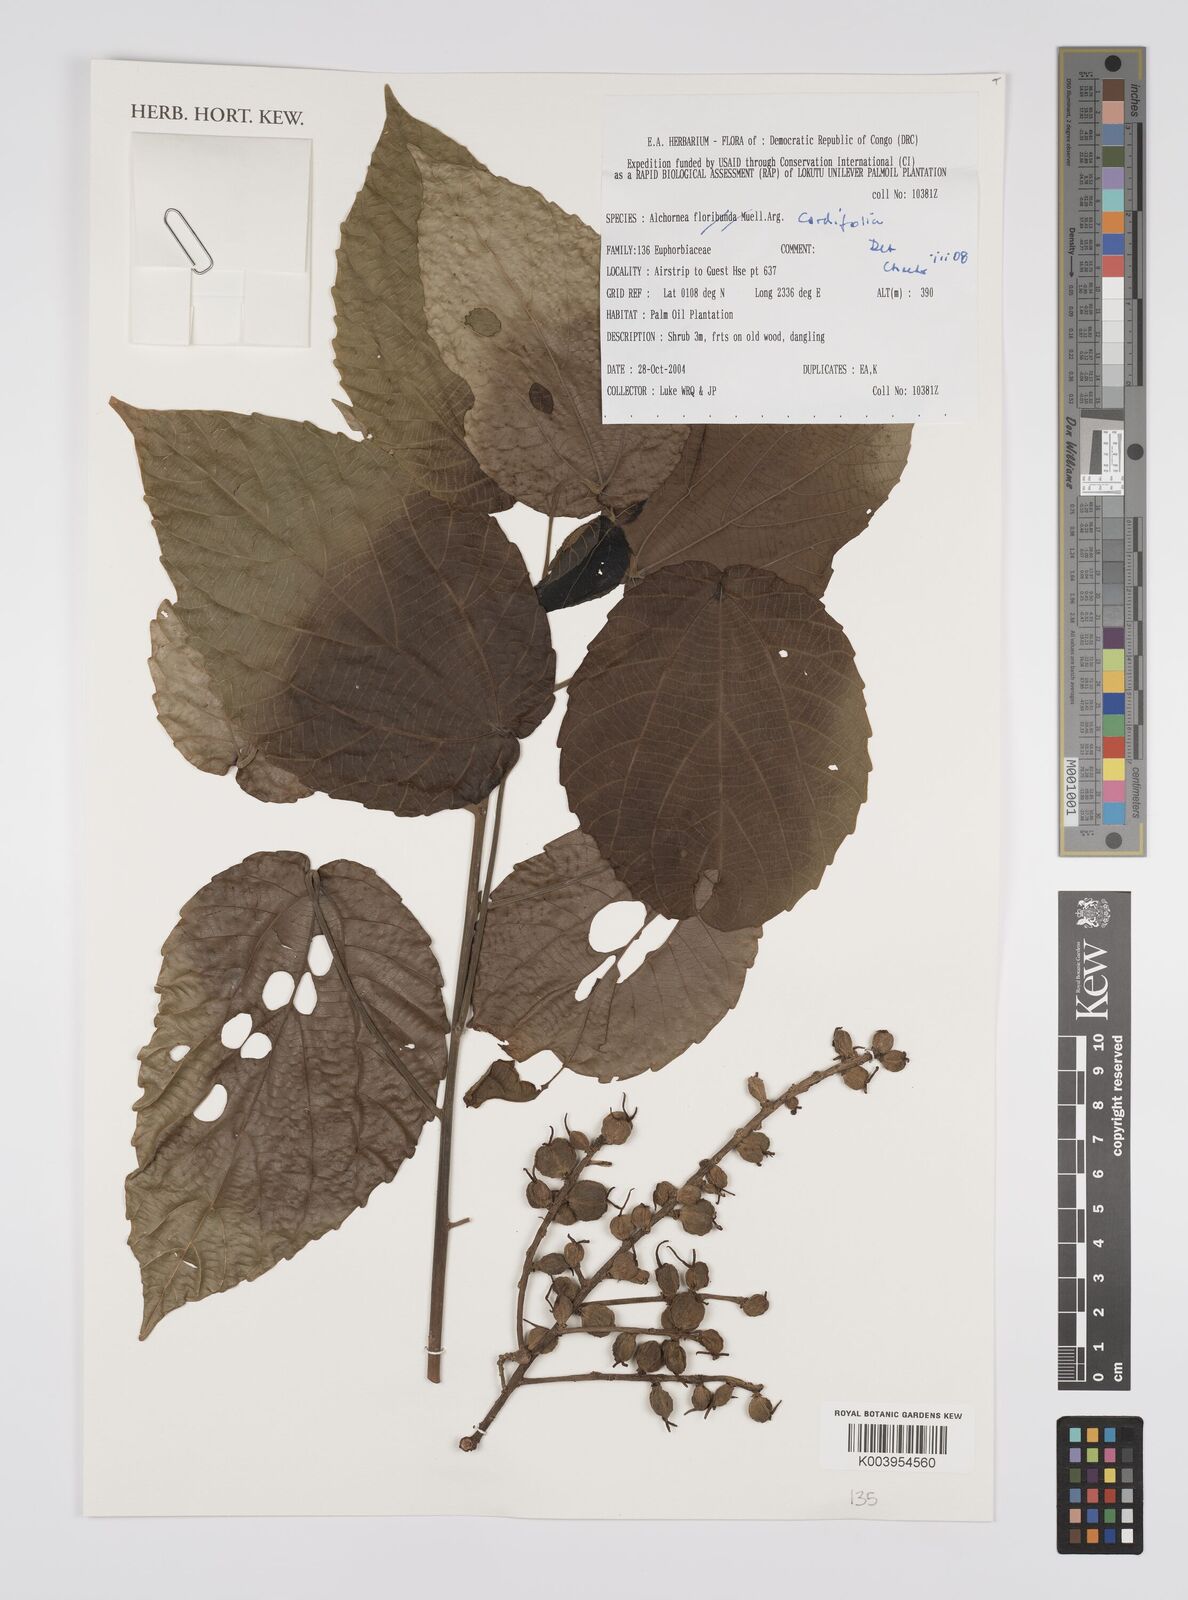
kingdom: Plantae
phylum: Tracheophyta
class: Magnoliopsida
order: Malpighiales
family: Euphorbiaceae
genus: Alchornea
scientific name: Alchornea cordifolia
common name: Christmasbush
